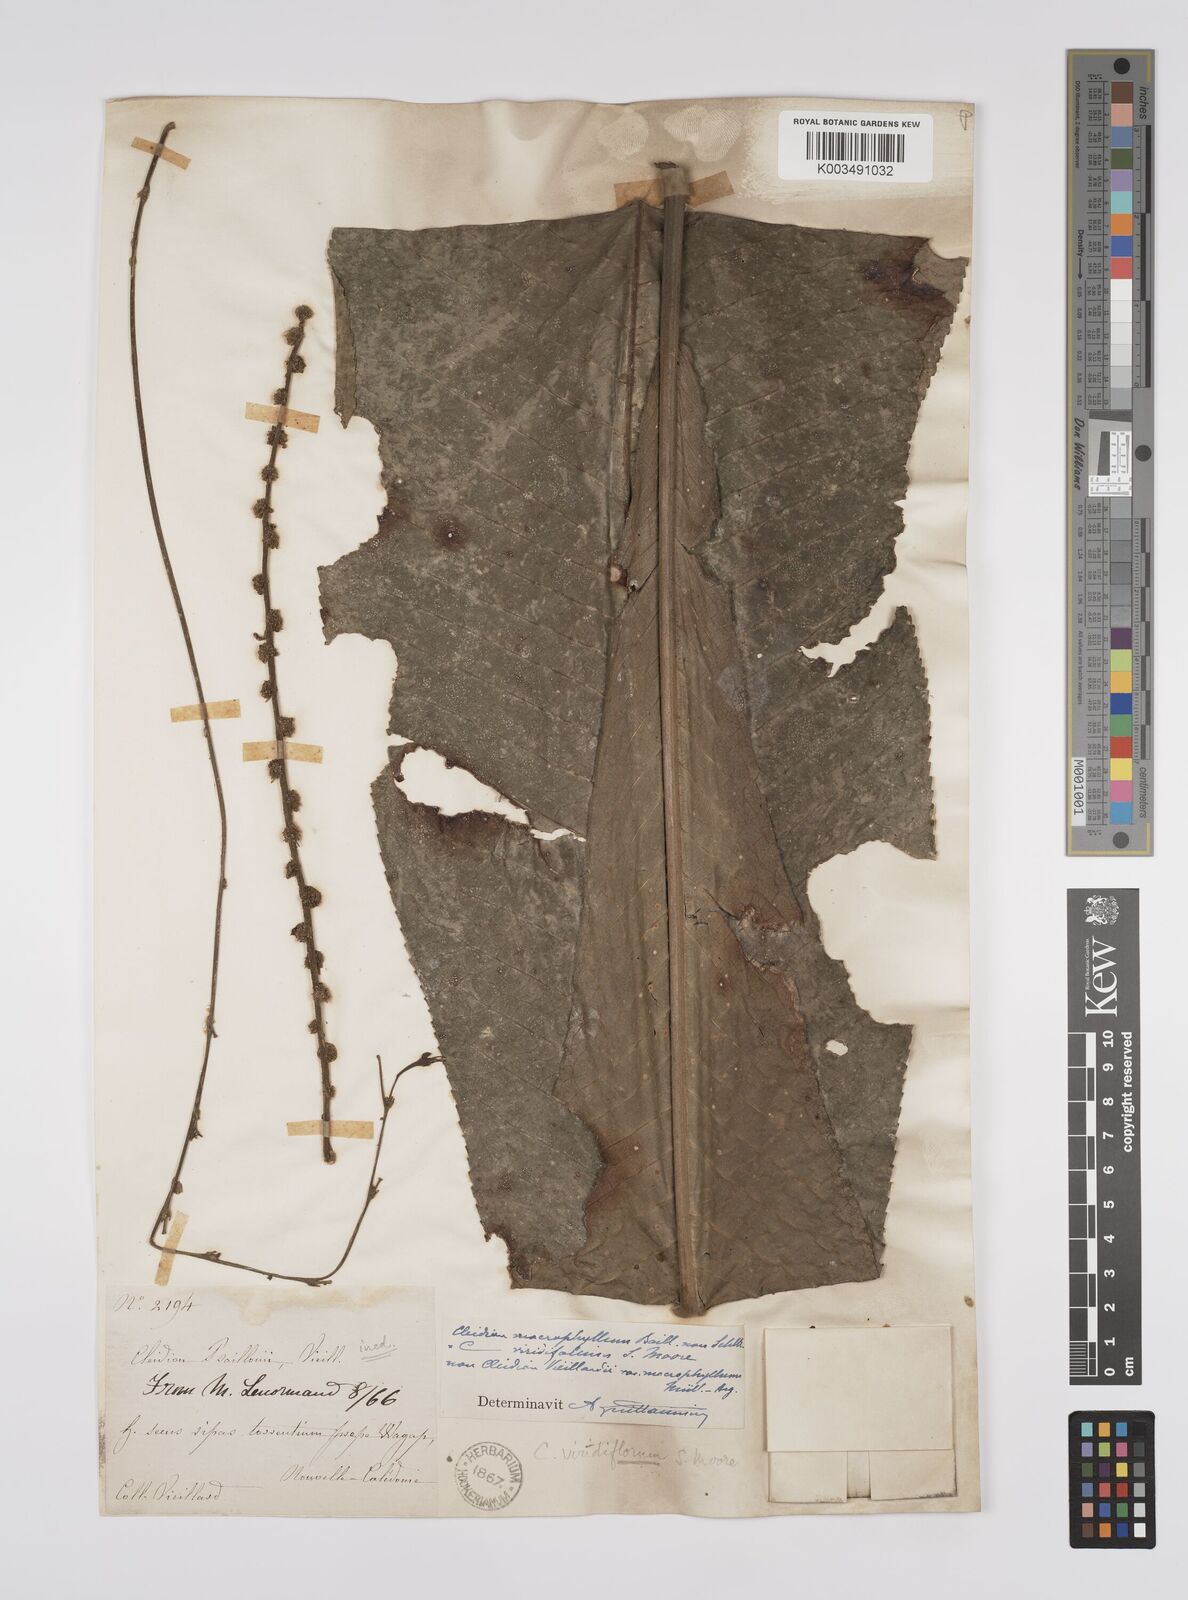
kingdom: Plantae
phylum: Tracheophyta
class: Magnoliopsida
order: Malpighiales
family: Euphorbiaceae
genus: Cleidion
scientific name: Cleidion macrophyllum
